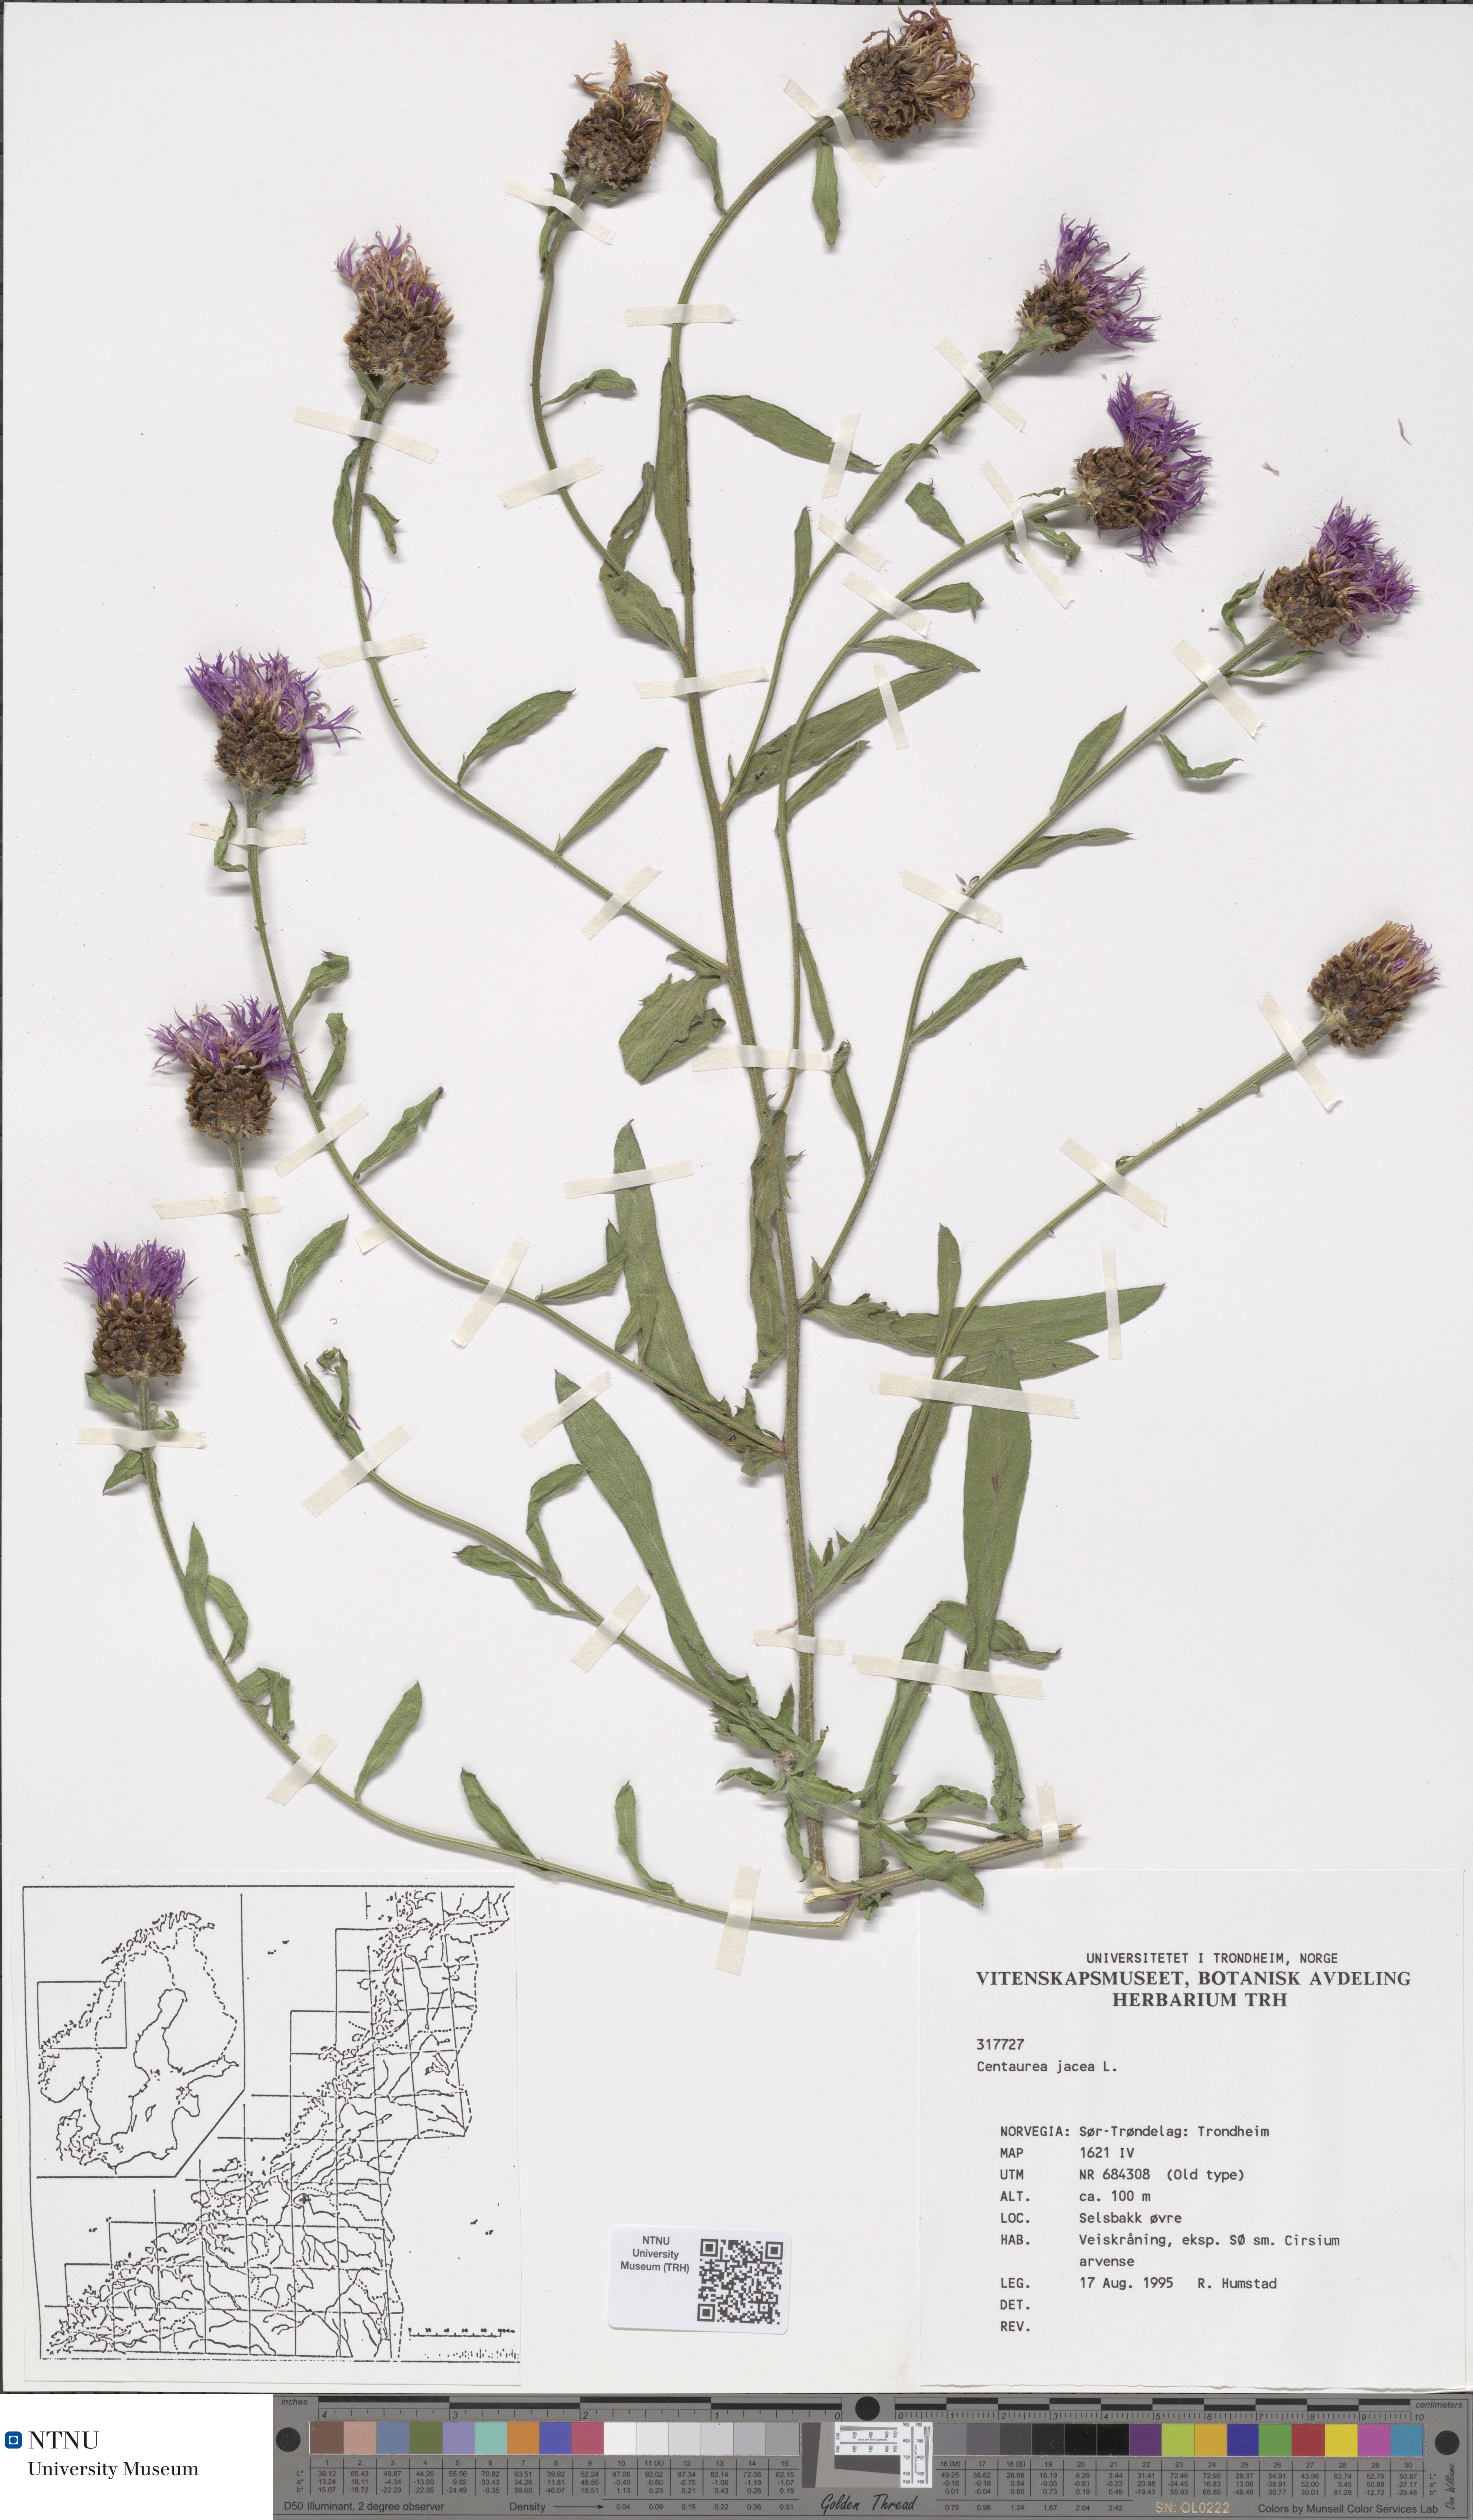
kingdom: Plantae
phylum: Tracheophyta
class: Magnoliopsida
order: Asterales
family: Asteraceae
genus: Centaurea
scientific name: Centaurea jacea
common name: Brown knapweed
